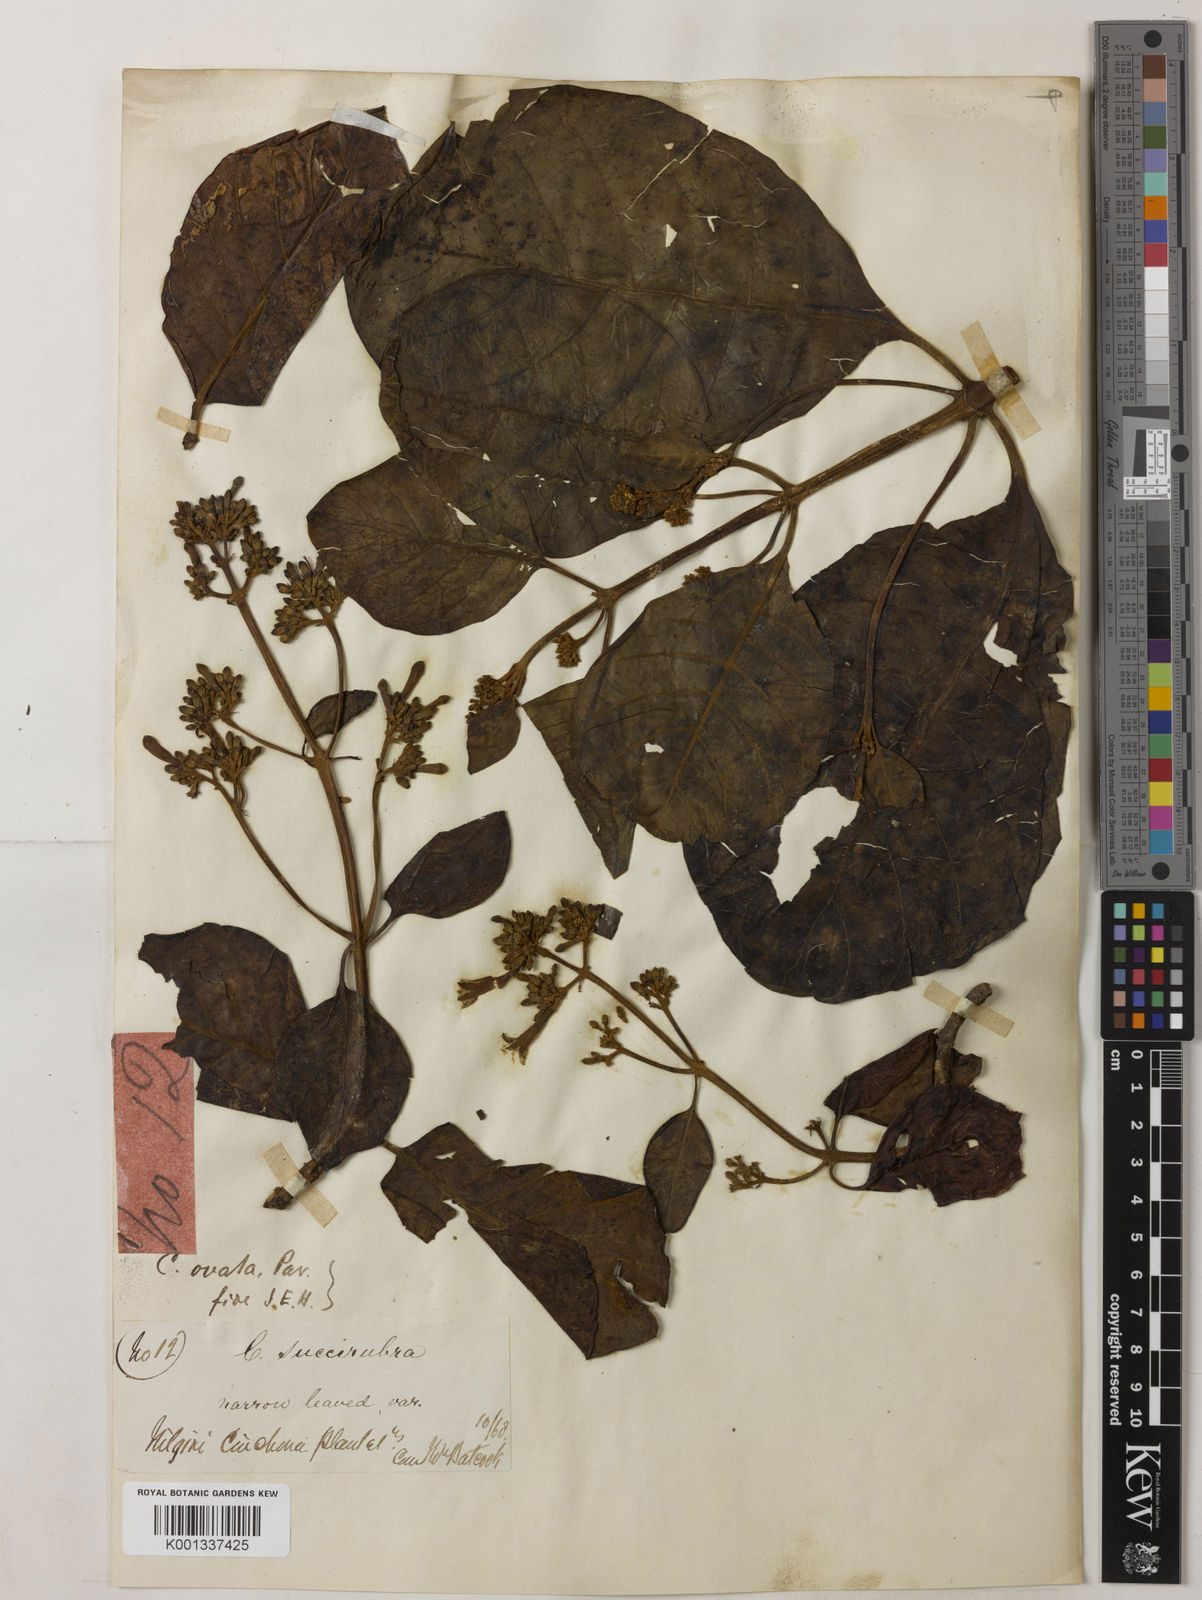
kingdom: Plantae
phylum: Tracheophyta
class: Magnoliopsida
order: Gentianales
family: Rubiaceae
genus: Cinchona
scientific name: Cinchona pubescens
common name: Quinine
